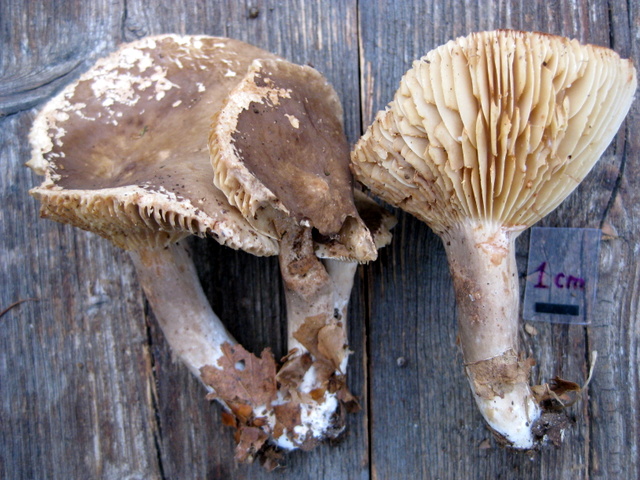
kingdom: Fungi
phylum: Basidiomycota
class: Agaricomycetes
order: Russulales
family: Russulaceae
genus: Lactarius
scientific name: Lactarius romagnesii
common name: fjernbladet mælkehat
